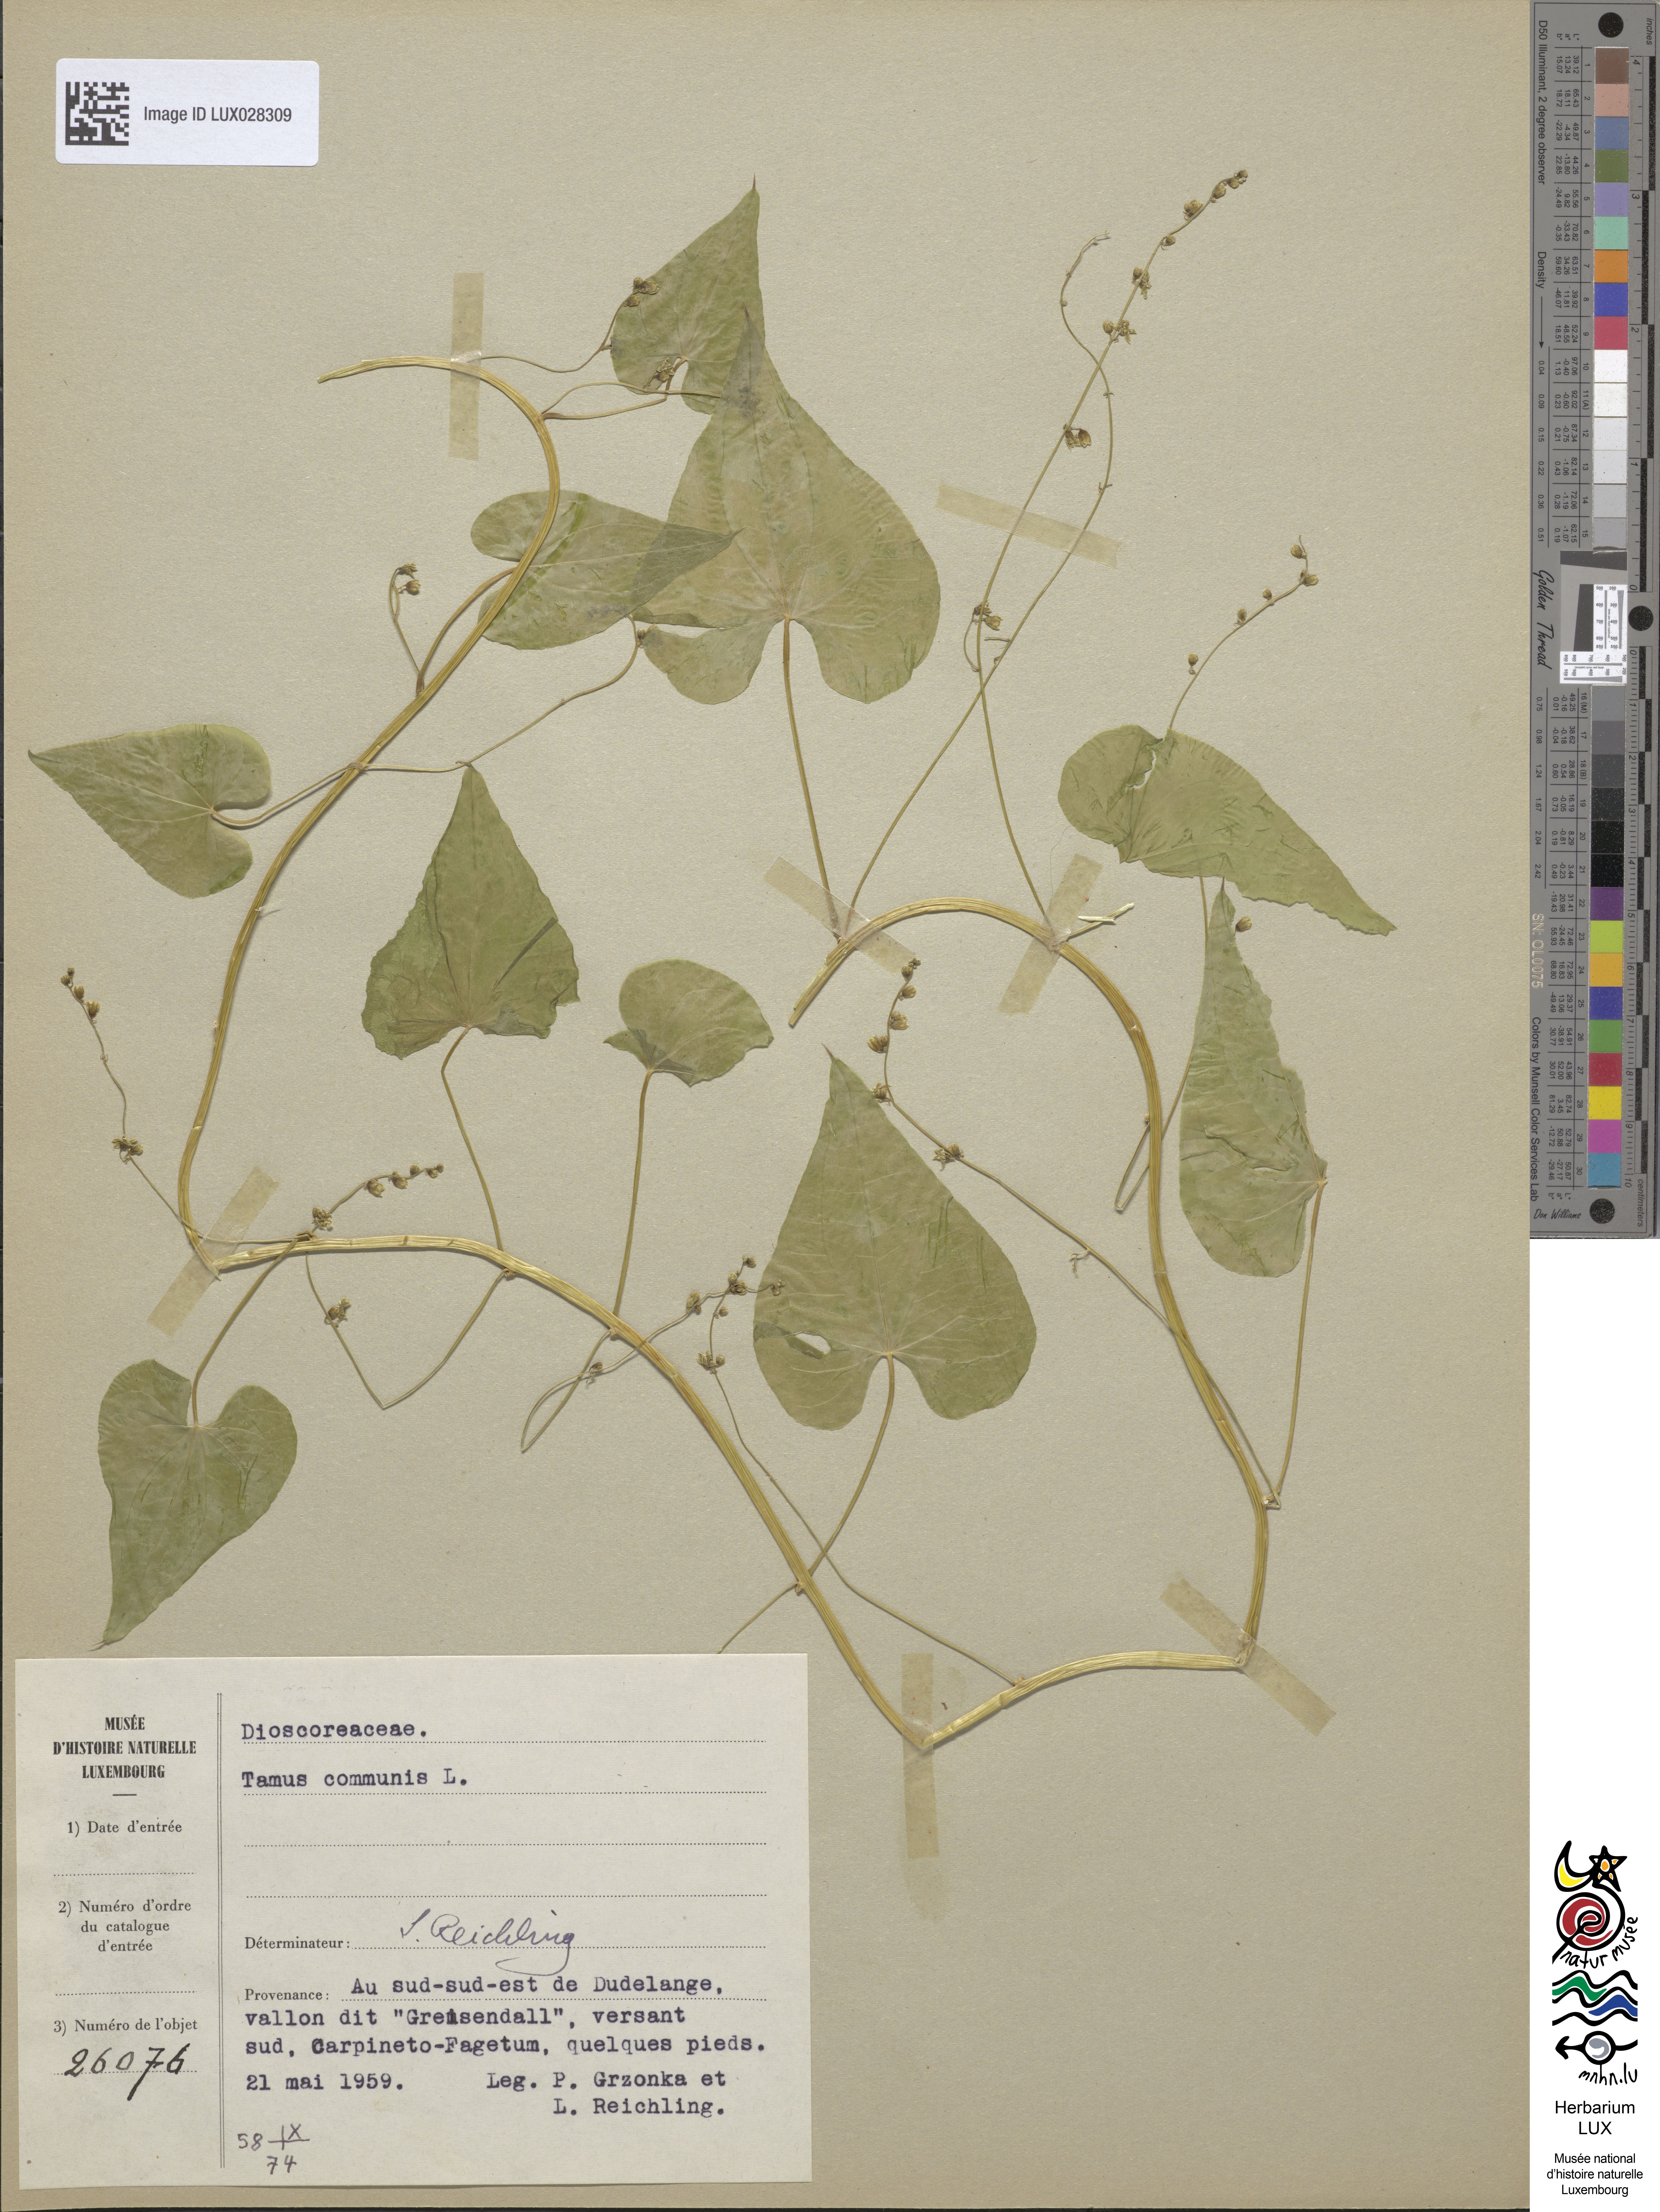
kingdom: Plantae
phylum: Tracheophyta
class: Liliopsida
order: Dioscoreales
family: Dioscoreaceae
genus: Dioscorea
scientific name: Dioscorea communis
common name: Black-bindweed
